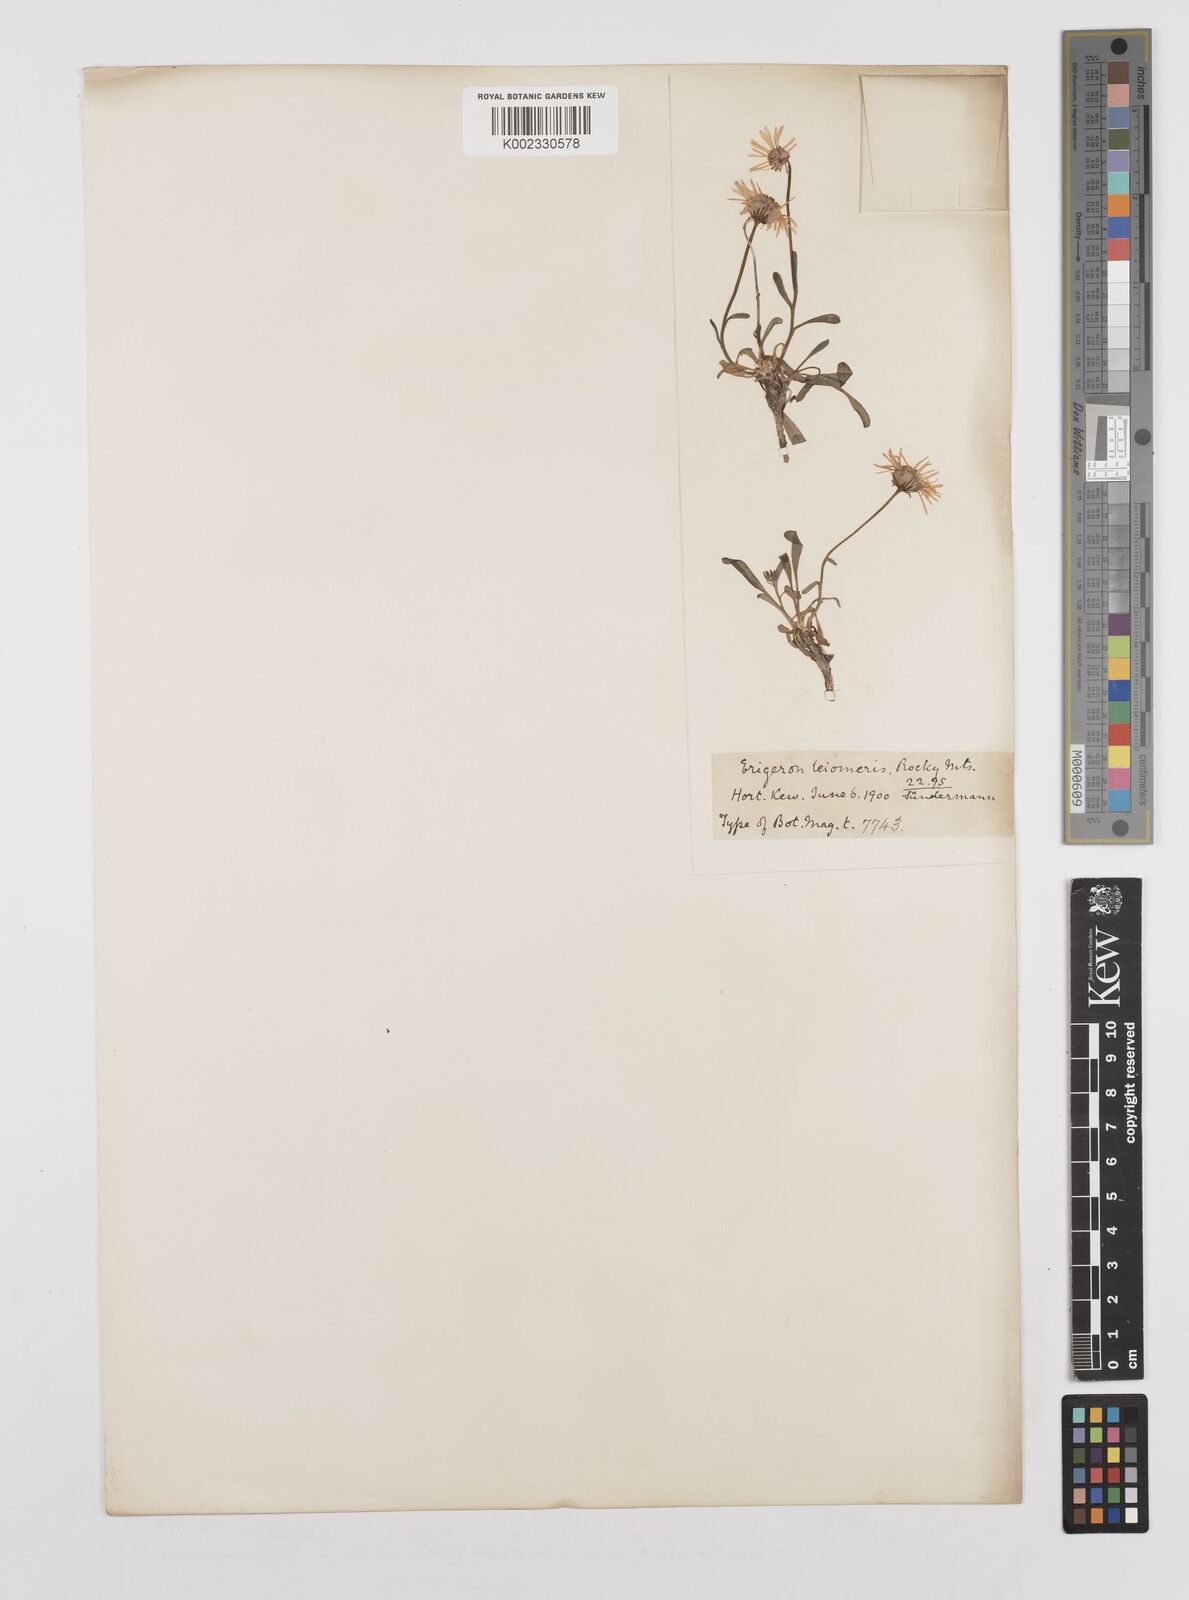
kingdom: Plantae
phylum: Tracheophyta
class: Magnoliopsida
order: Asterales
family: Asteraceae
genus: Erigeron
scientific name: Erigeron leiomerus
